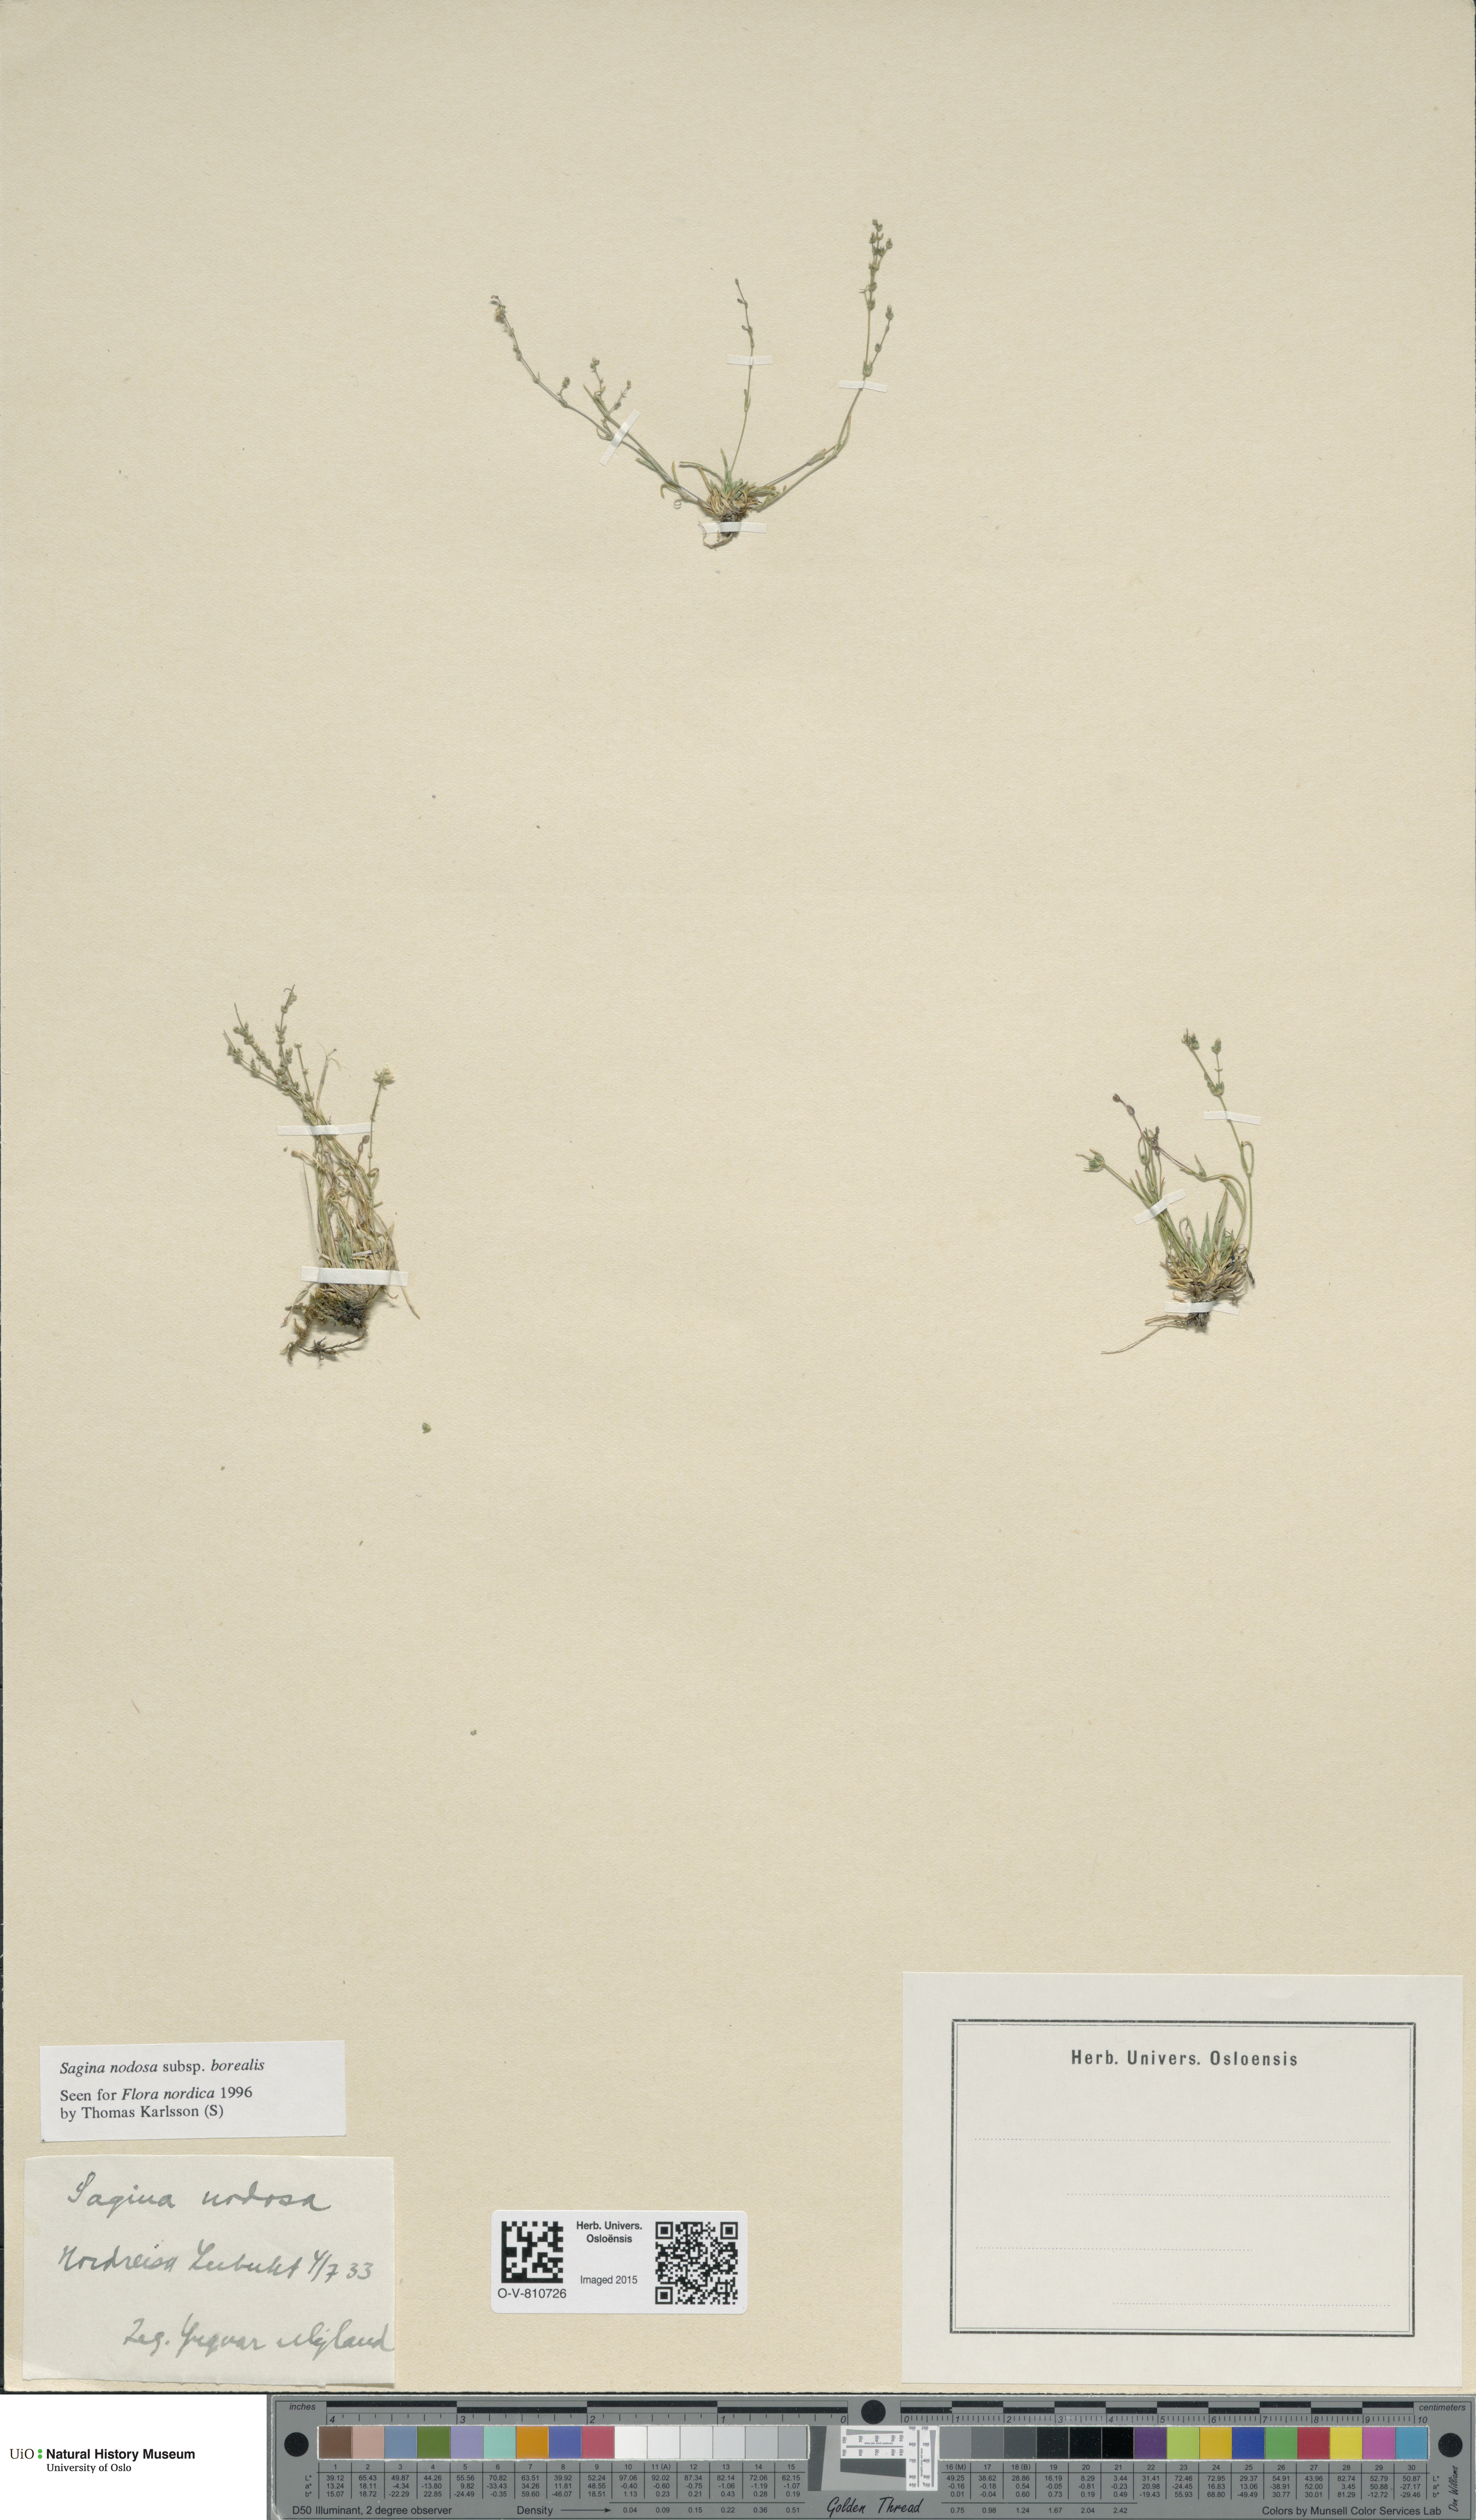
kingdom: Plantae
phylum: Tracheophyta
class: Magnoliopsida
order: Caryophyllales
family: Caryophyllaceae
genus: Sagina
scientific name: Sagina nodosa
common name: Knotted pearlwort
